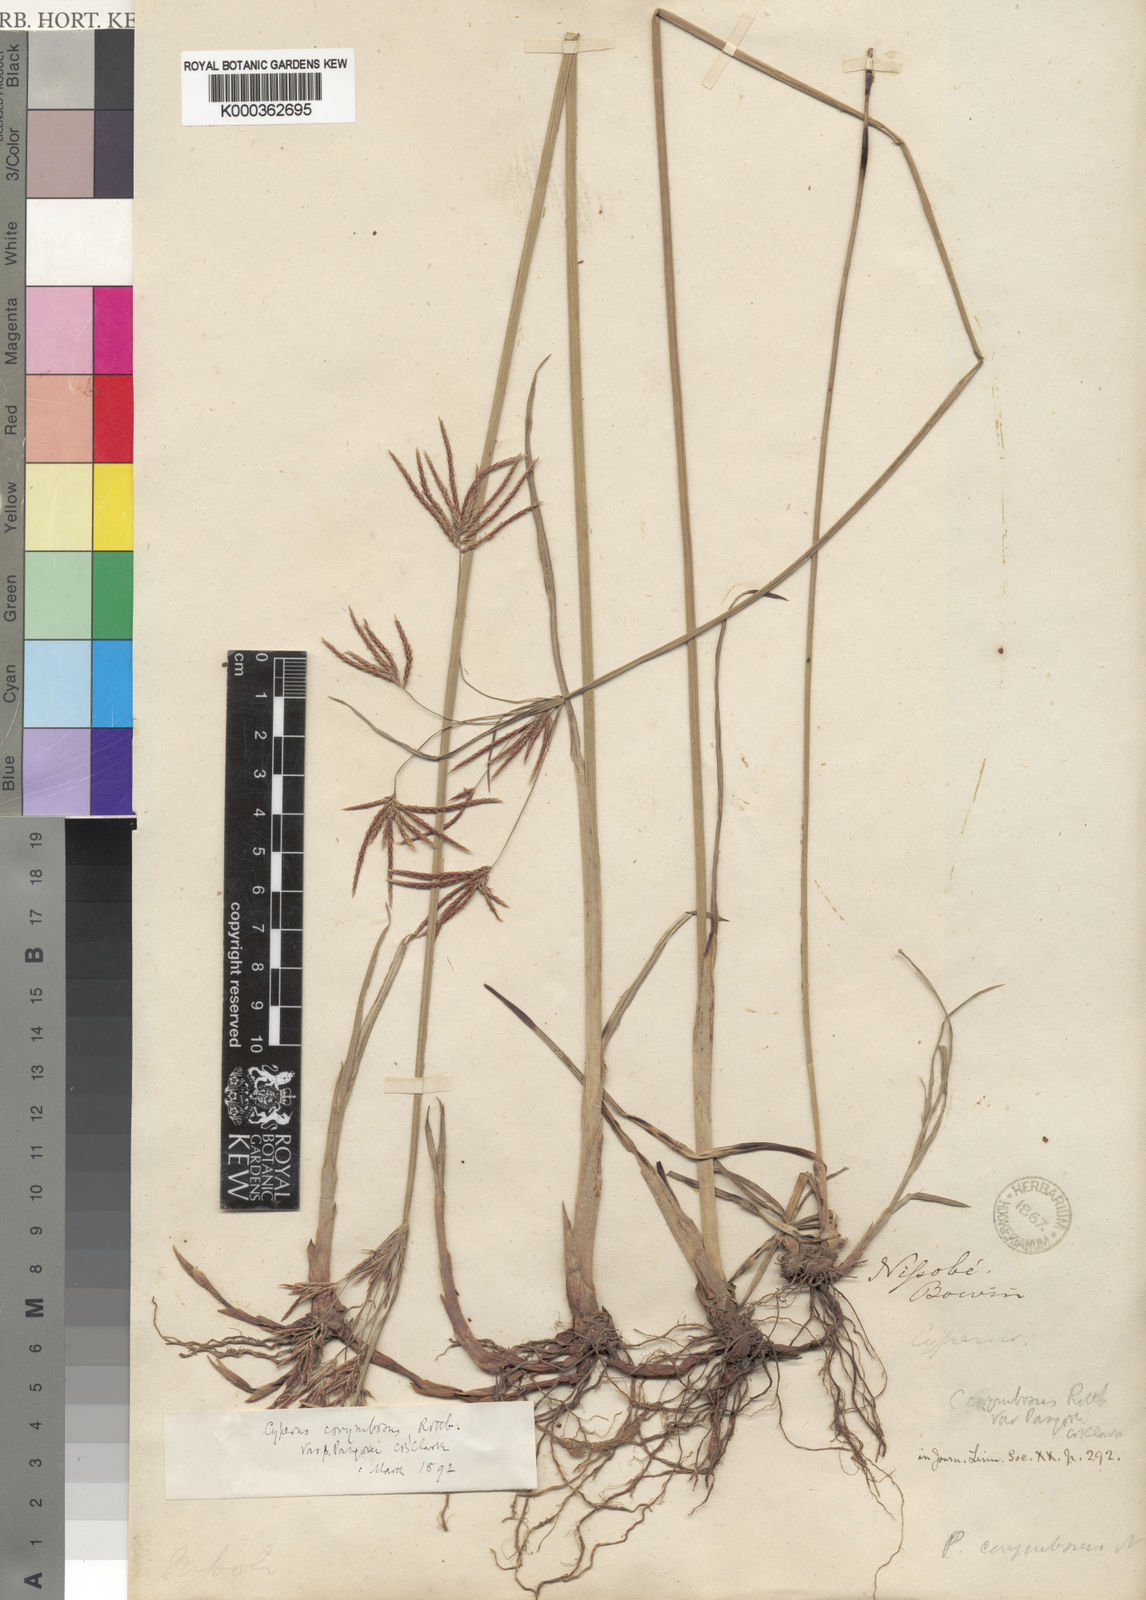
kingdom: Plantae
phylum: Tracheophyta
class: Liliopsida
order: Poales
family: Cyperaceae
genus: Cyperus
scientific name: Cyperus
